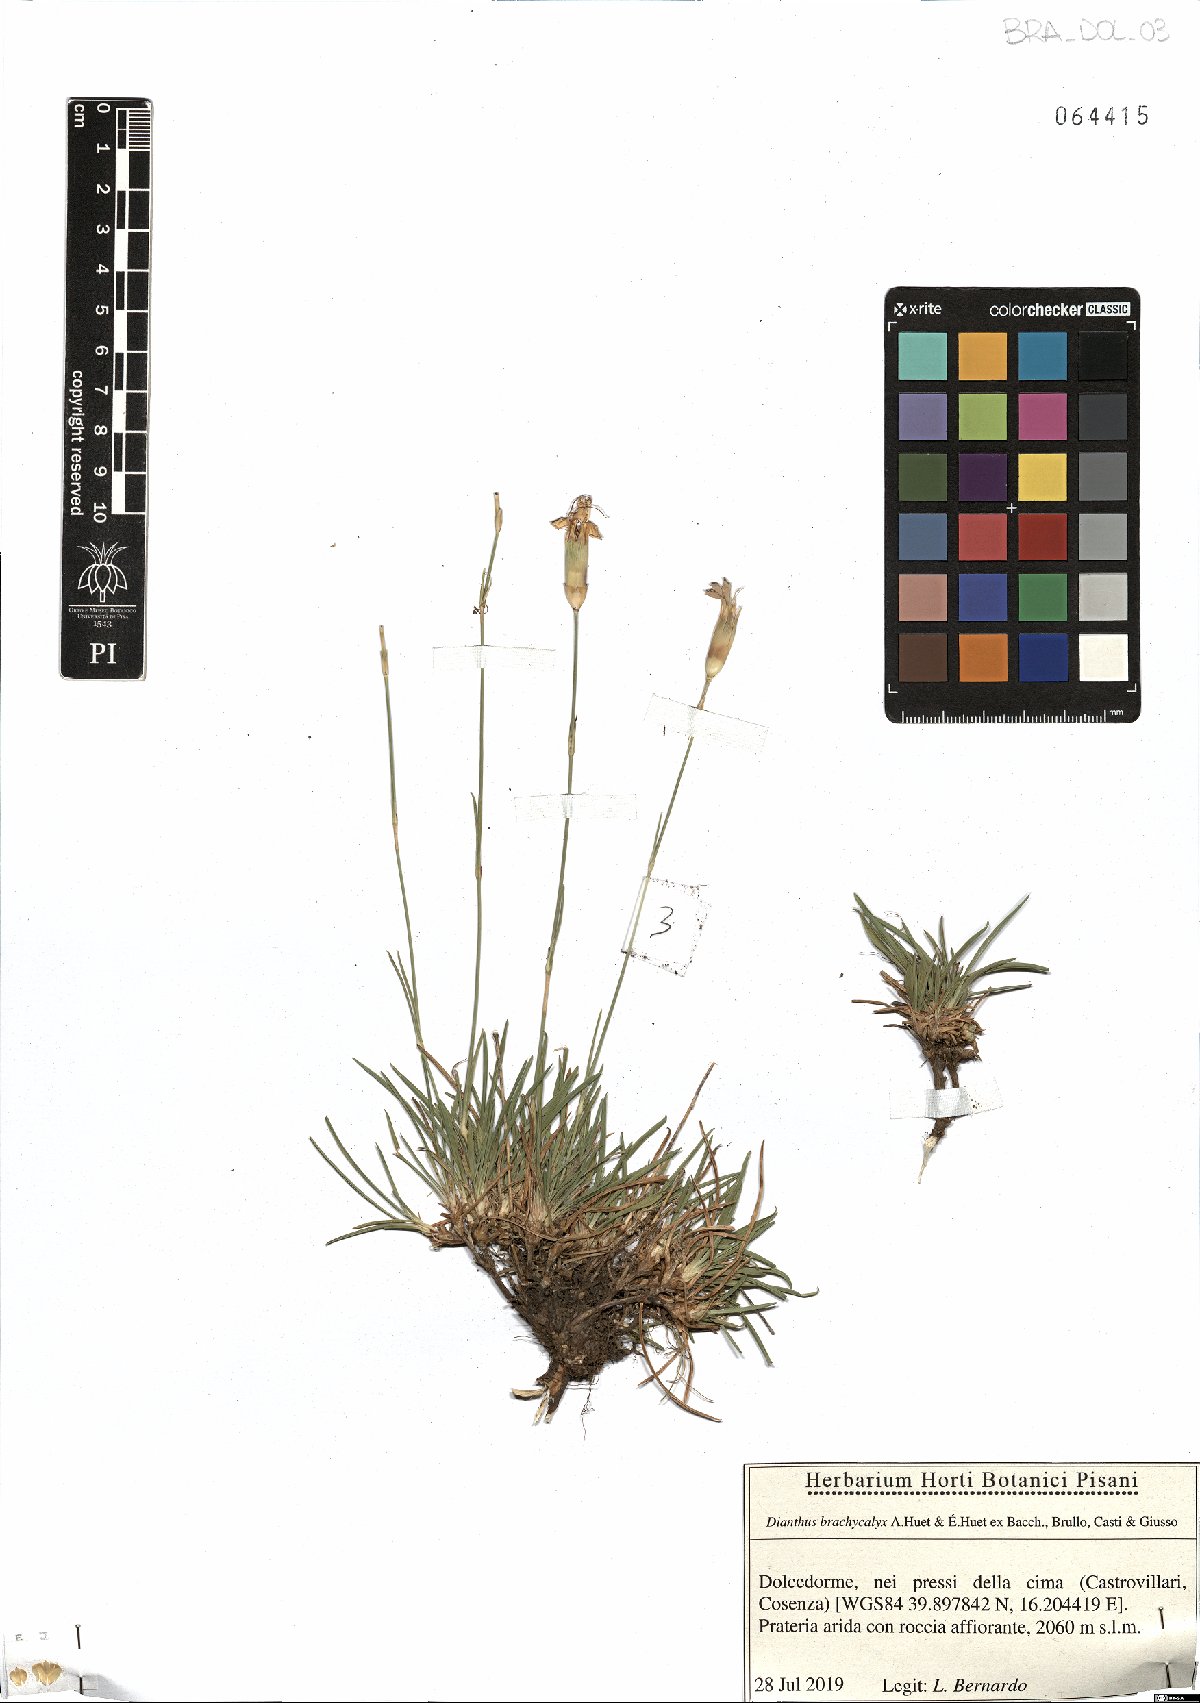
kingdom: Plantae
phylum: Tracheophyta
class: Magnoliopsida
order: Caryophyllales
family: Caryophyllaceae
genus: Dianthus
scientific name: Dianthus brachycalyx
